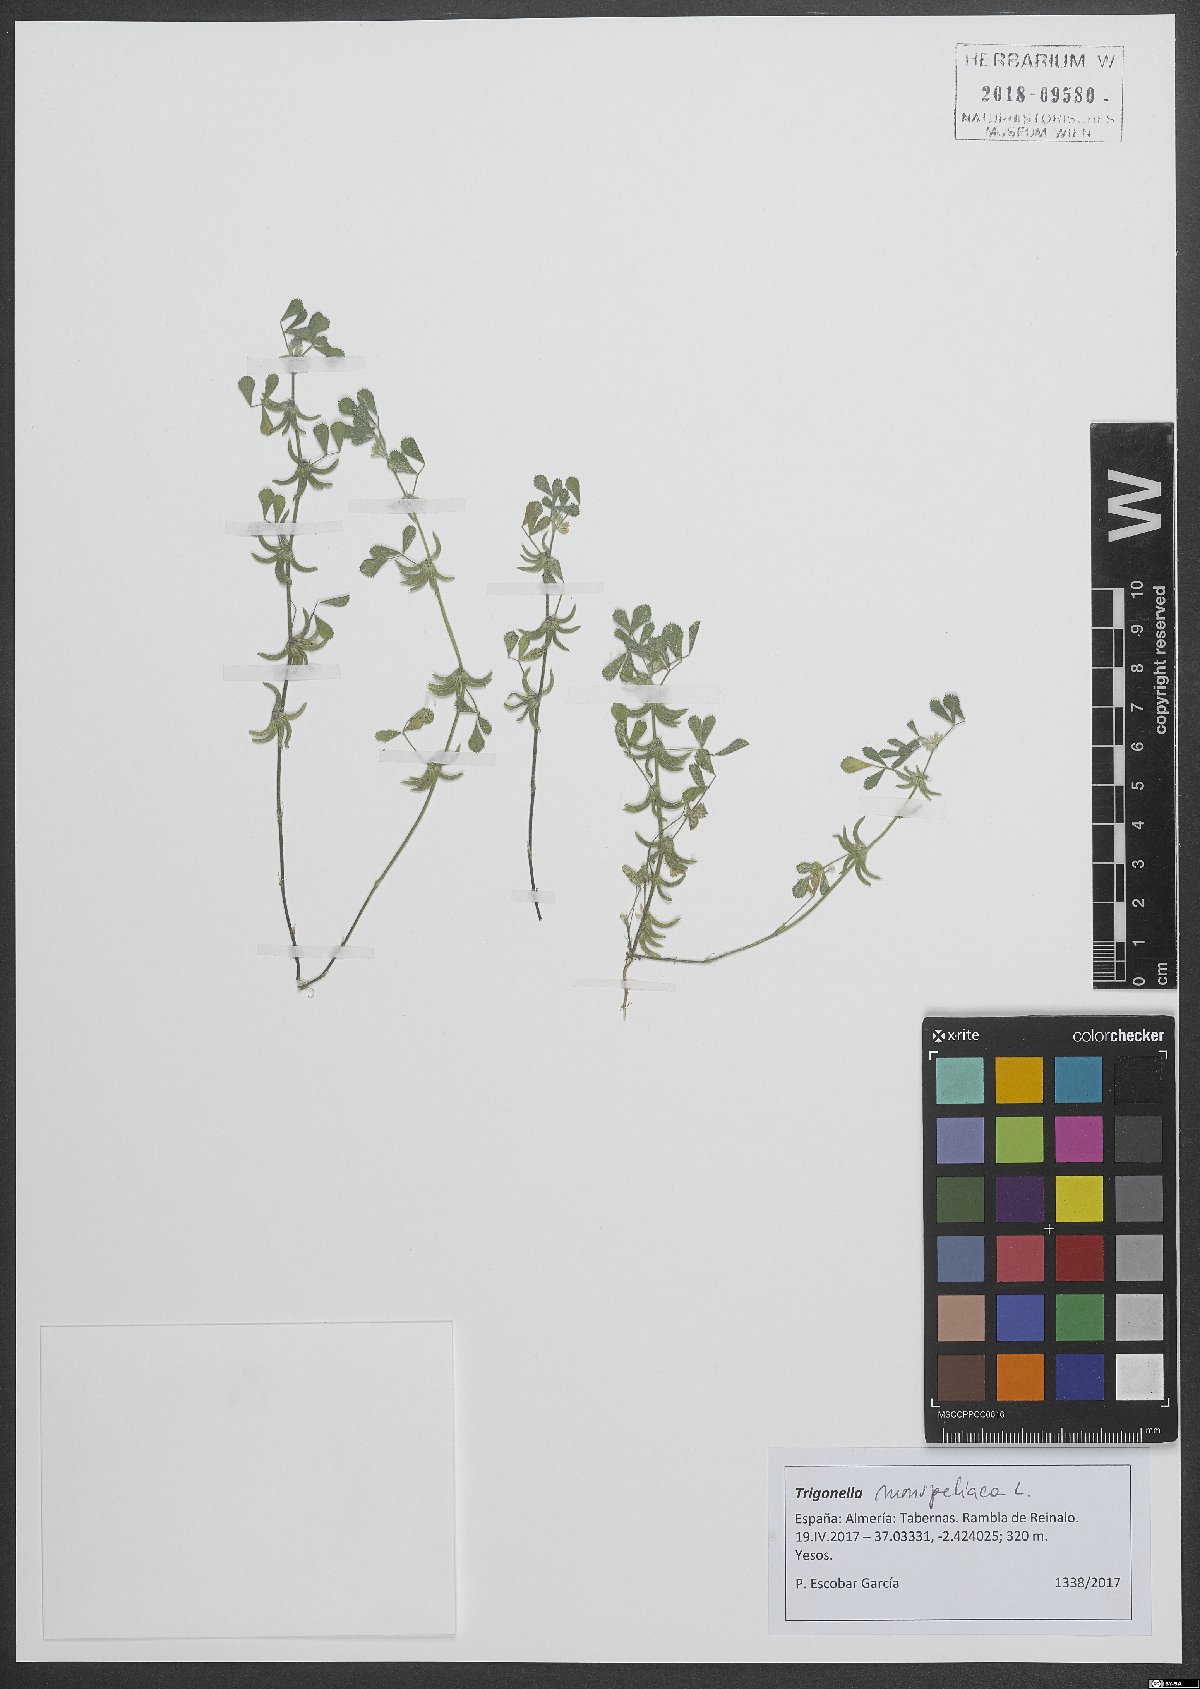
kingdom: Plantae
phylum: Tracheophyta
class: Magnoliopsida
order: Fabales
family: Fabaceae
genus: Medicago
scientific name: Medicago monspeliaca
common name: Hairy medick
